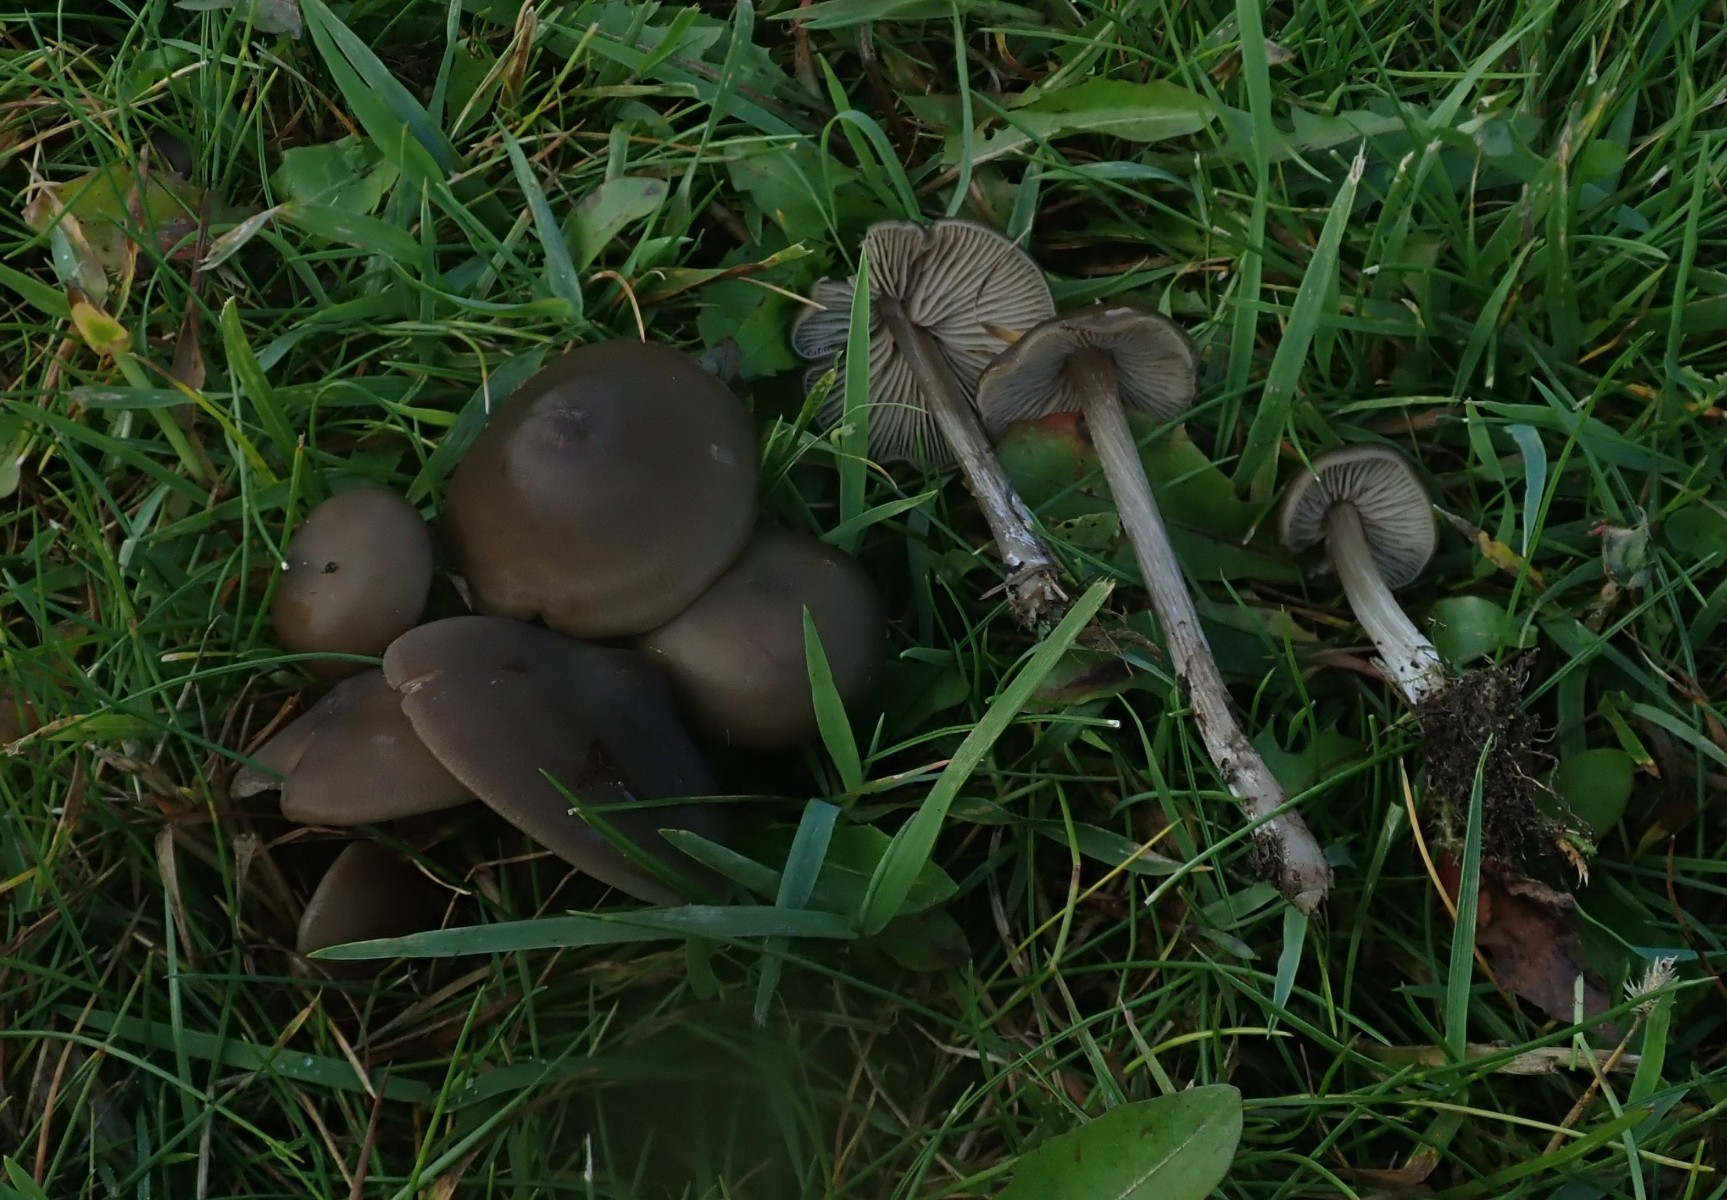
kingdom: Fungi
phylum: Basidiomycota
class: Agaricomycetes
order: Agaricales
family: Entolomataceae
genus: Entoloma
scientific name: Entoloma
